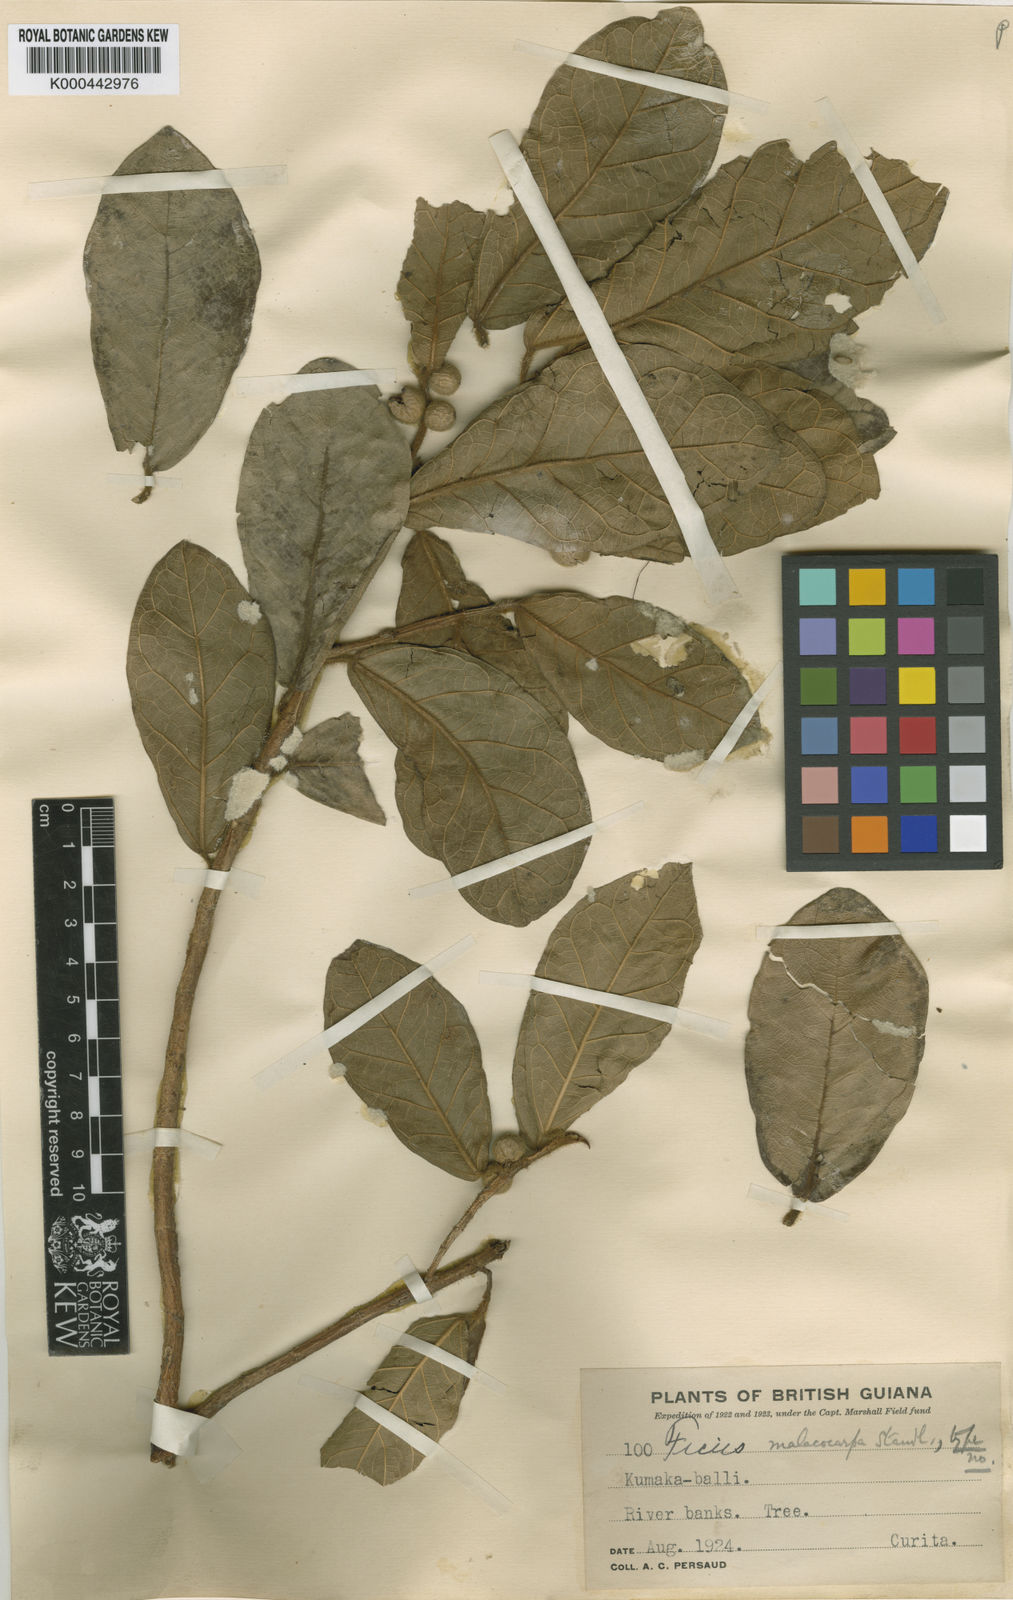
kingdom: Plantae
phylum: Tracheophyta
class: Magnoliopsida
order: Rosales
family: Moraceae
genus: Ficus
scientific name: Ficus popenoei
